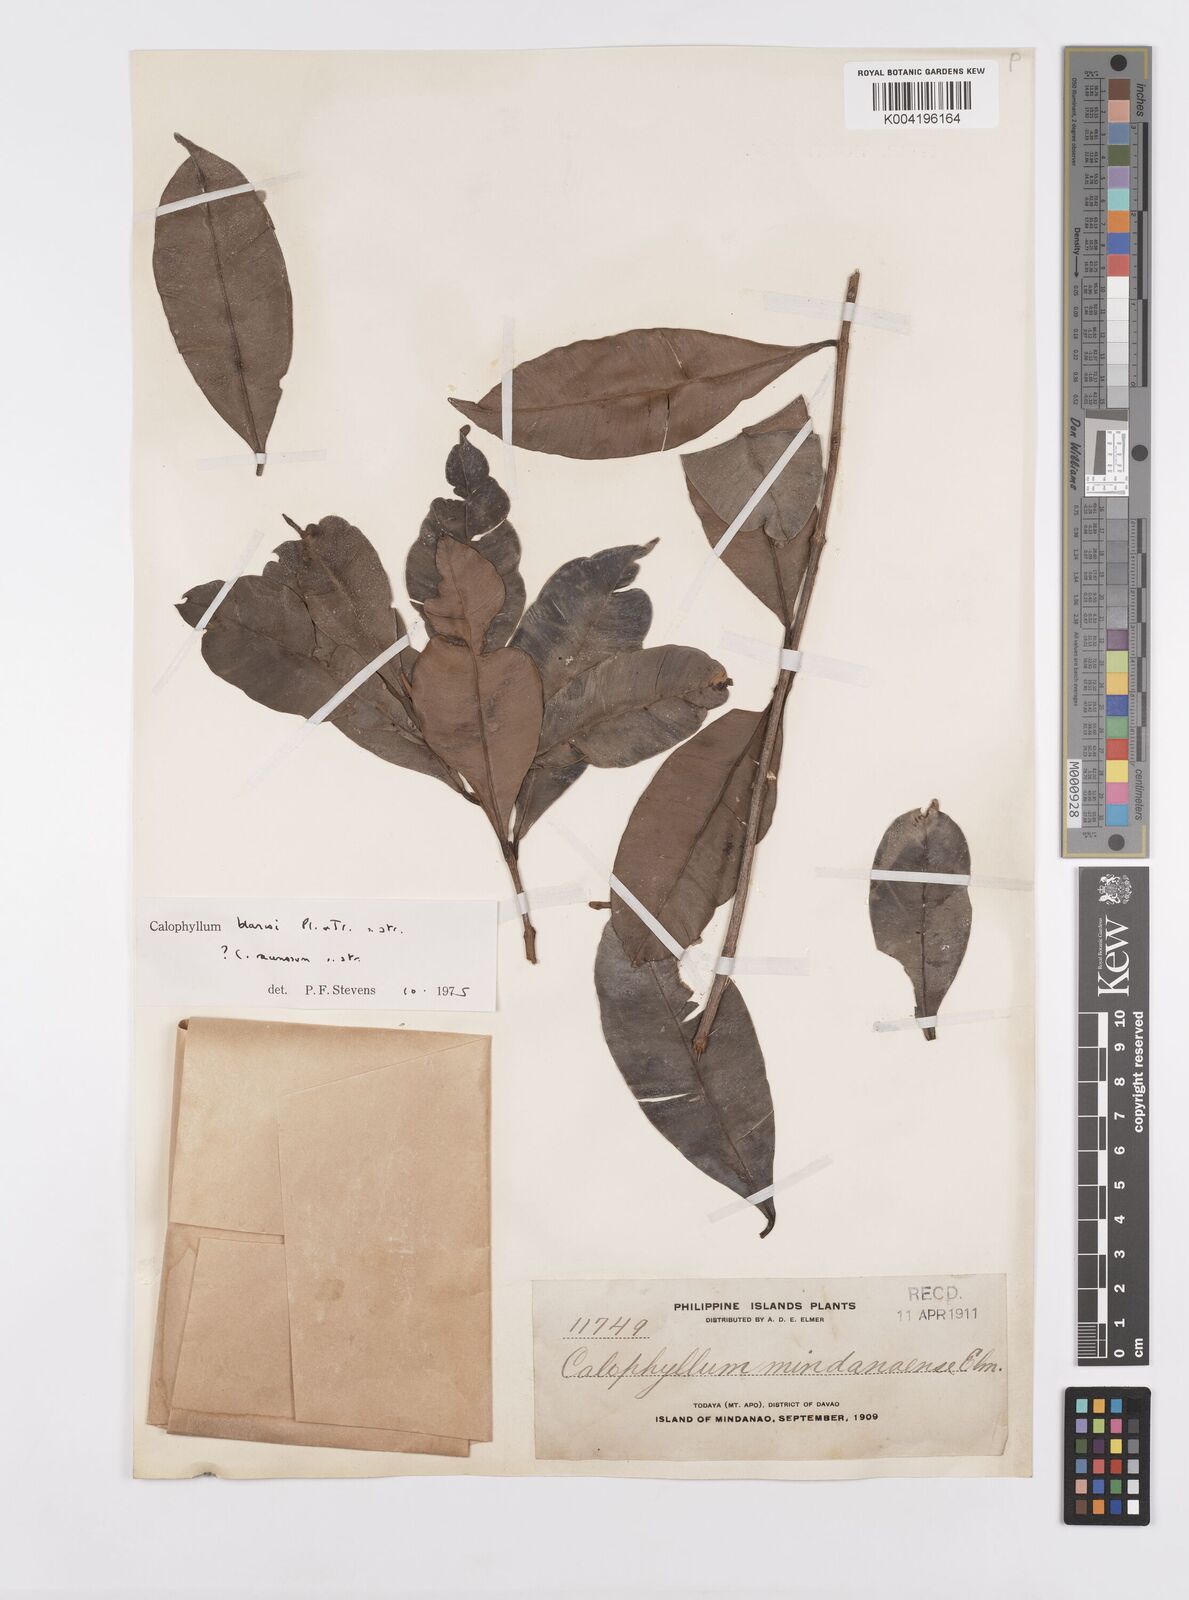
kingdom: Plantae
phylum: Tracheophyta
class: Magnoliopsida
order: Malpighiales
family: Calophyllaceae
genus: Calophyllum
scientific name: Calophyllum blancoi
